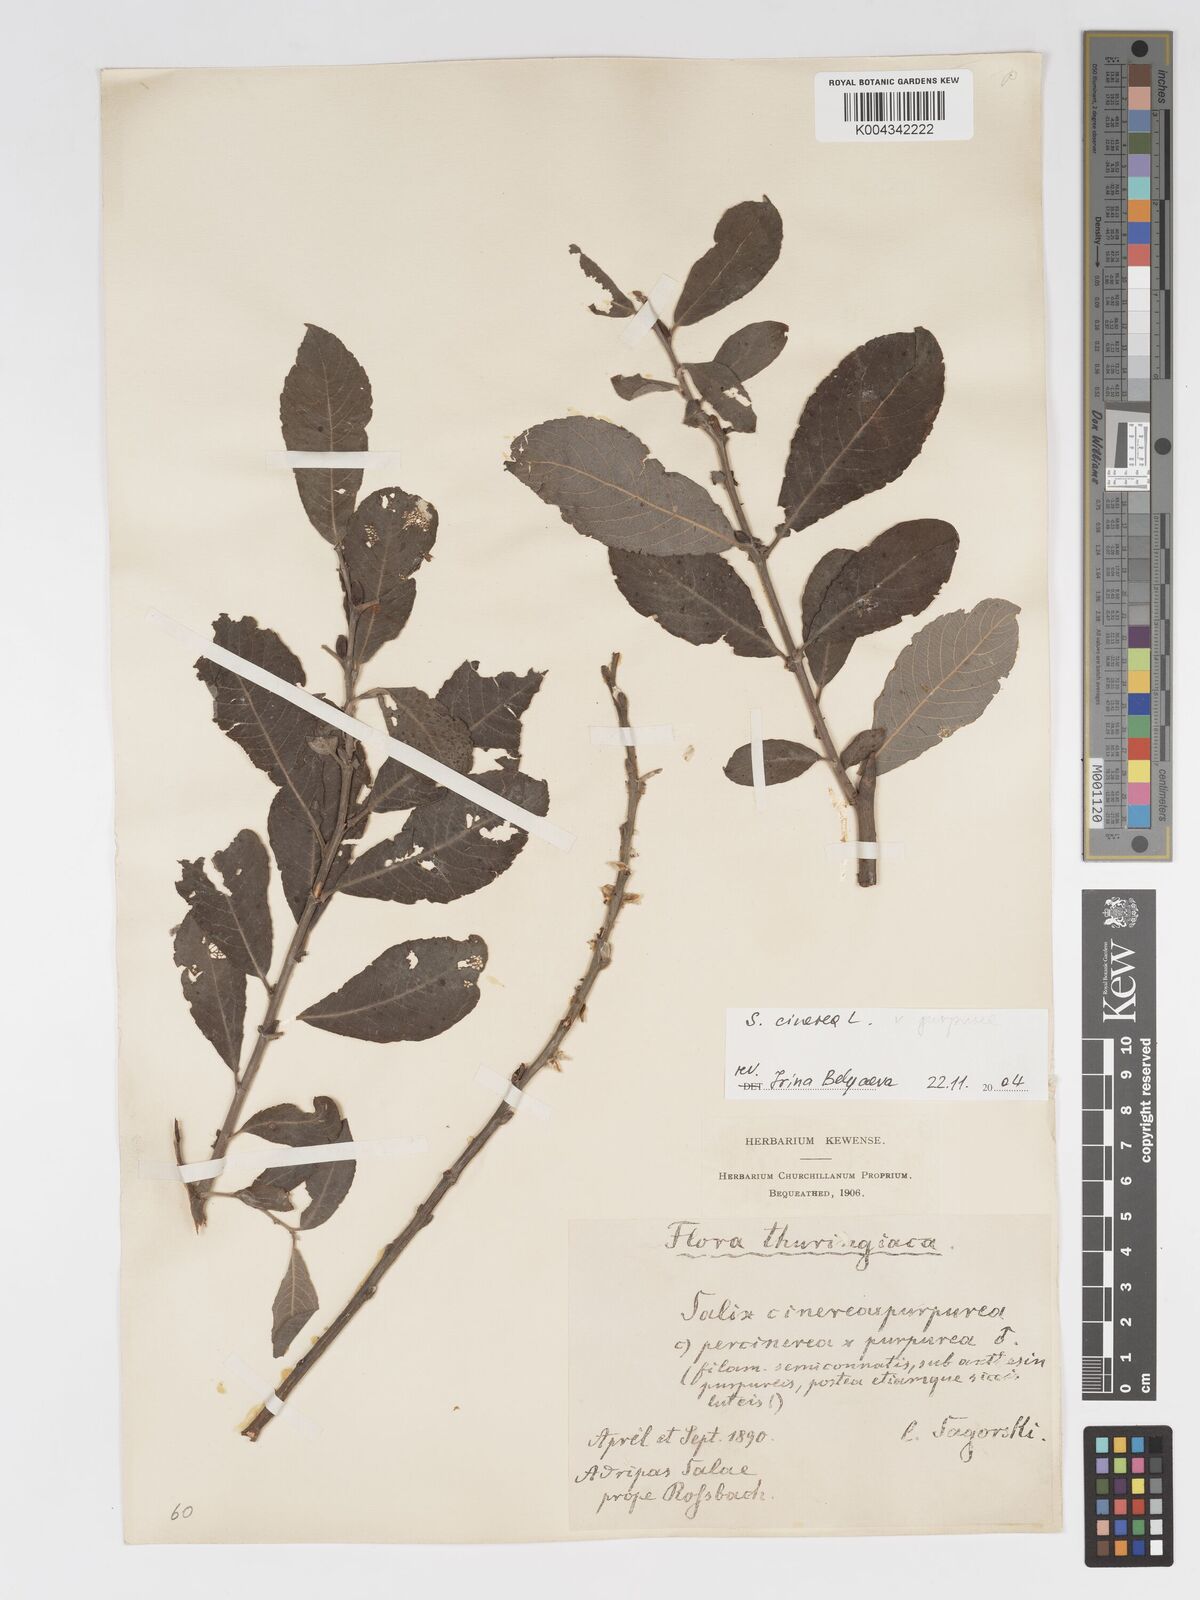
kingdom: Plantae
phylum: Tracheophyta
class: Magnoliopsida
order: Malpighiales
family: Salicaceae
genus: Salix
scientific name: Salix
